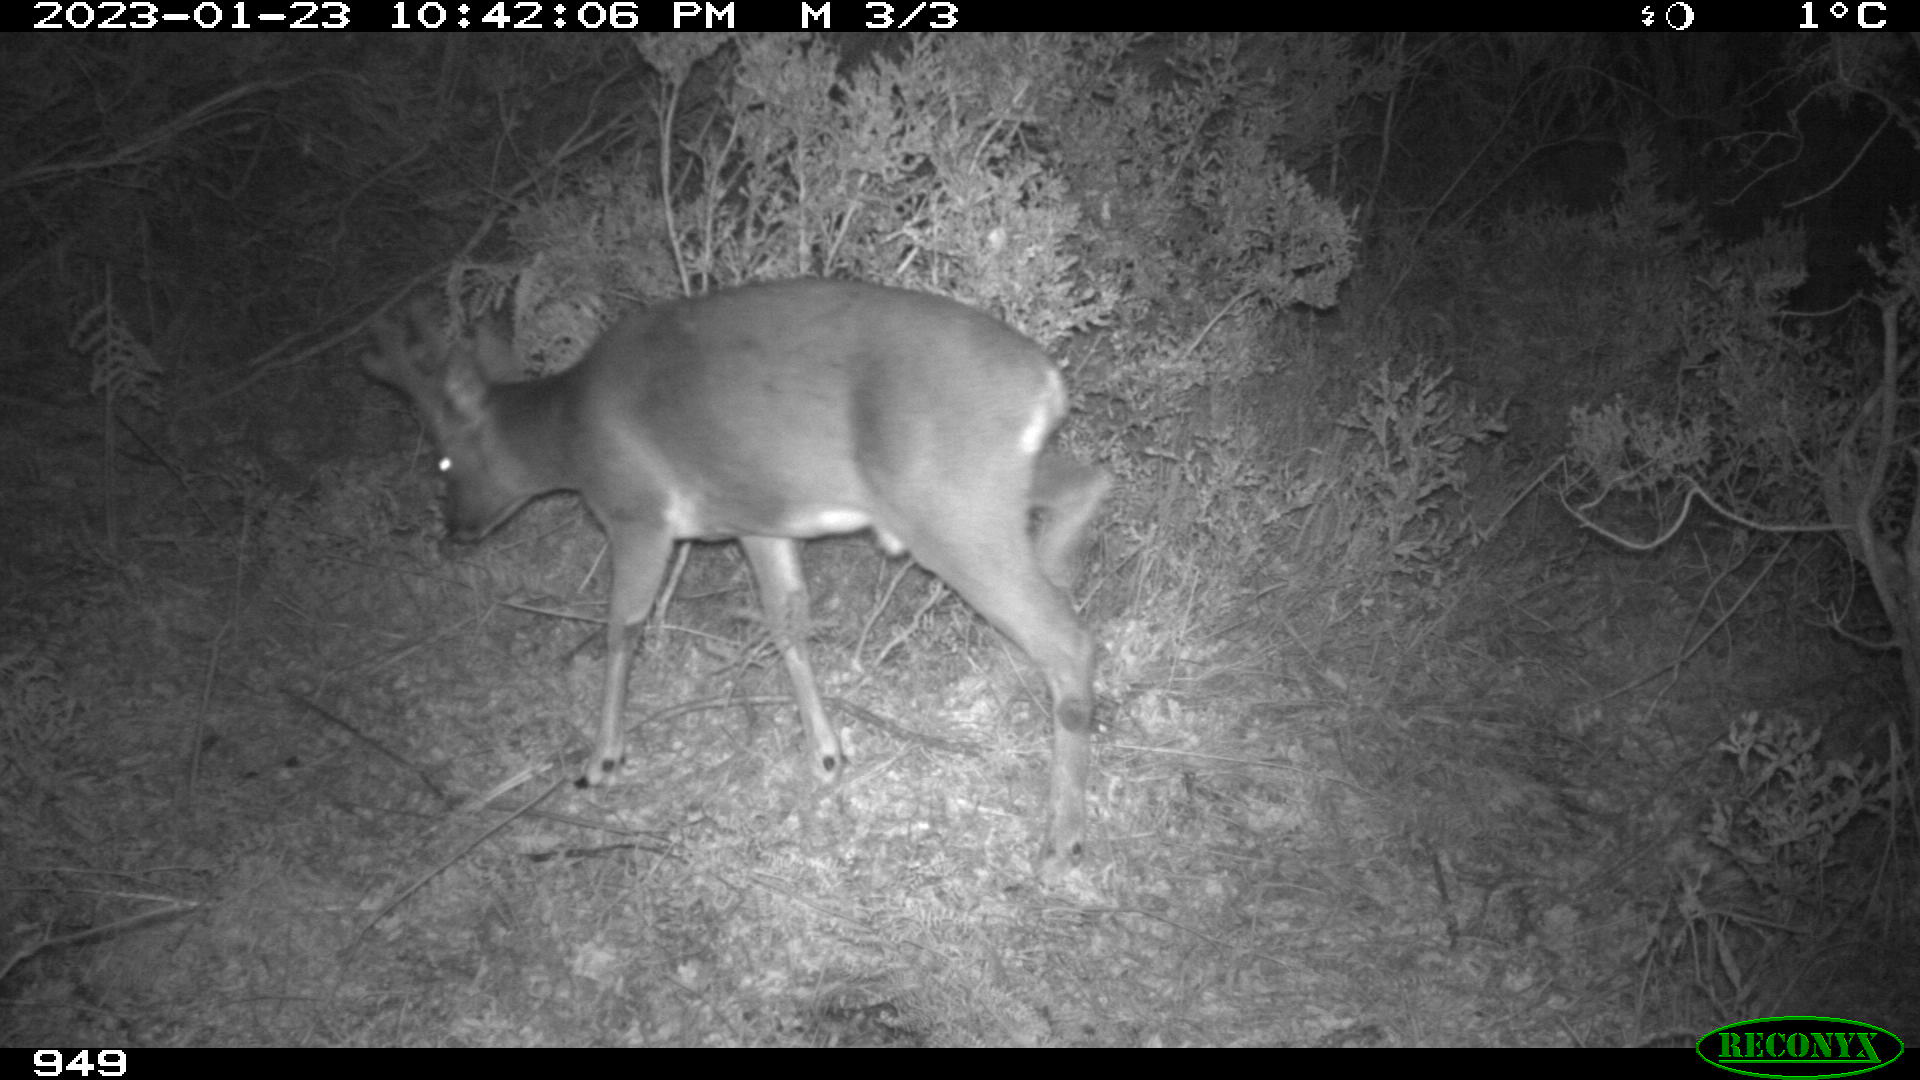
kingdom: Animalia
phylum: Chordata
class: Mammalia
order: Artiodactyla
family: Cervidae
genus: Capreolus
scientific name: Capreolus capreolus
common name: Western roe deer
